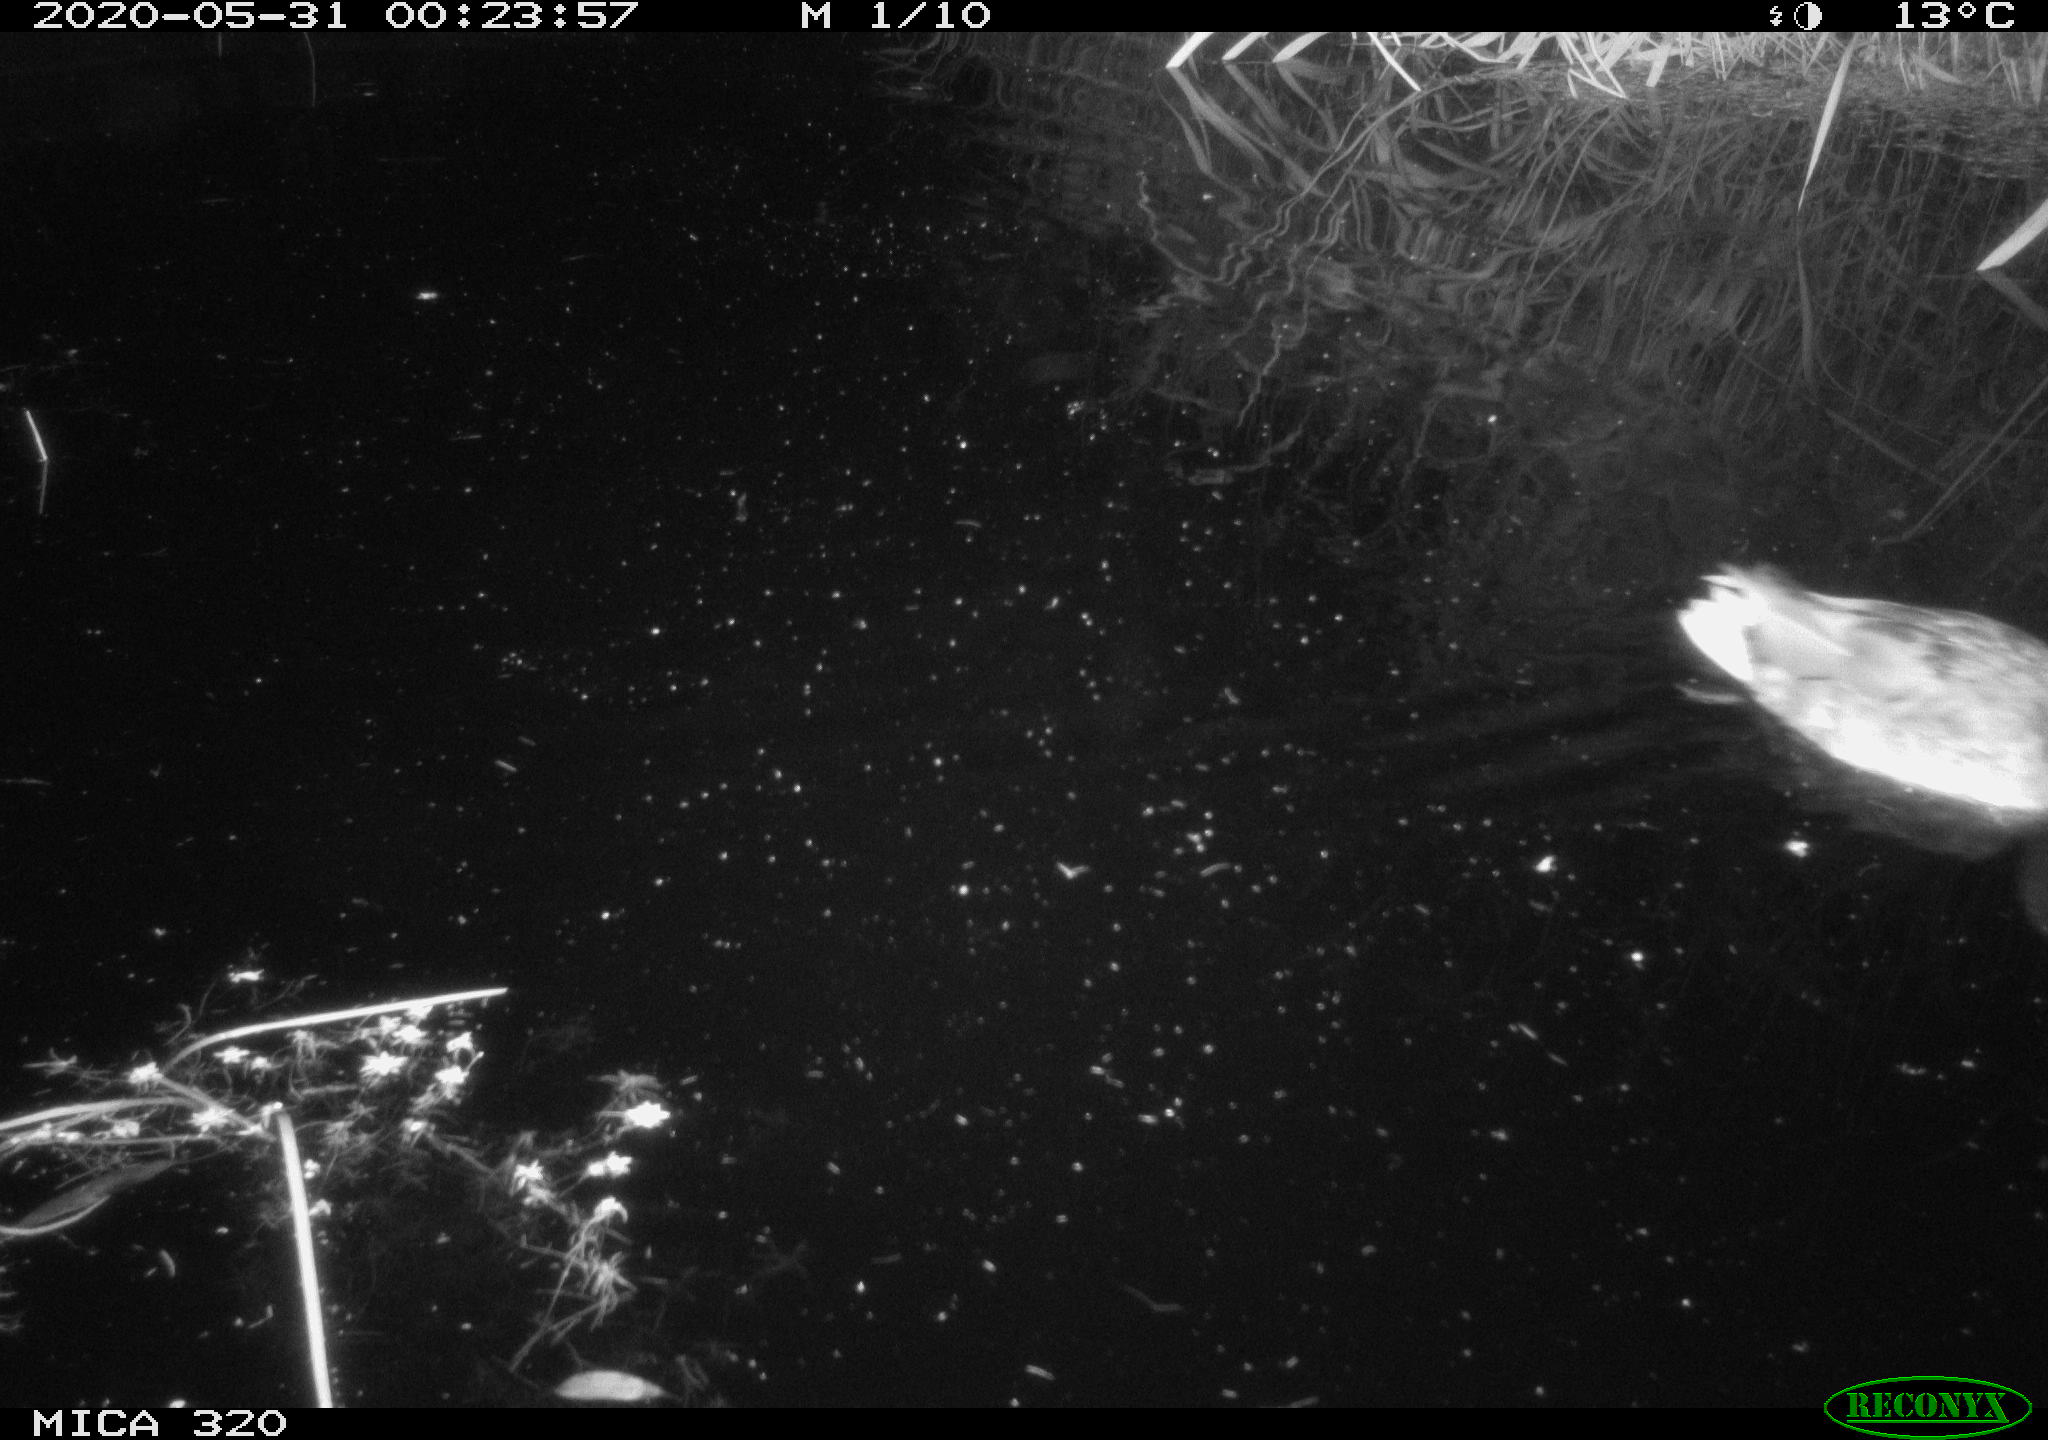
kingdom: Animalia
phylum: Chordata
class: Aves
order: Anseriformes
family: Anatidae
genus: Anas
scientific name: Anas platyrhynchos
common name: Mallard
